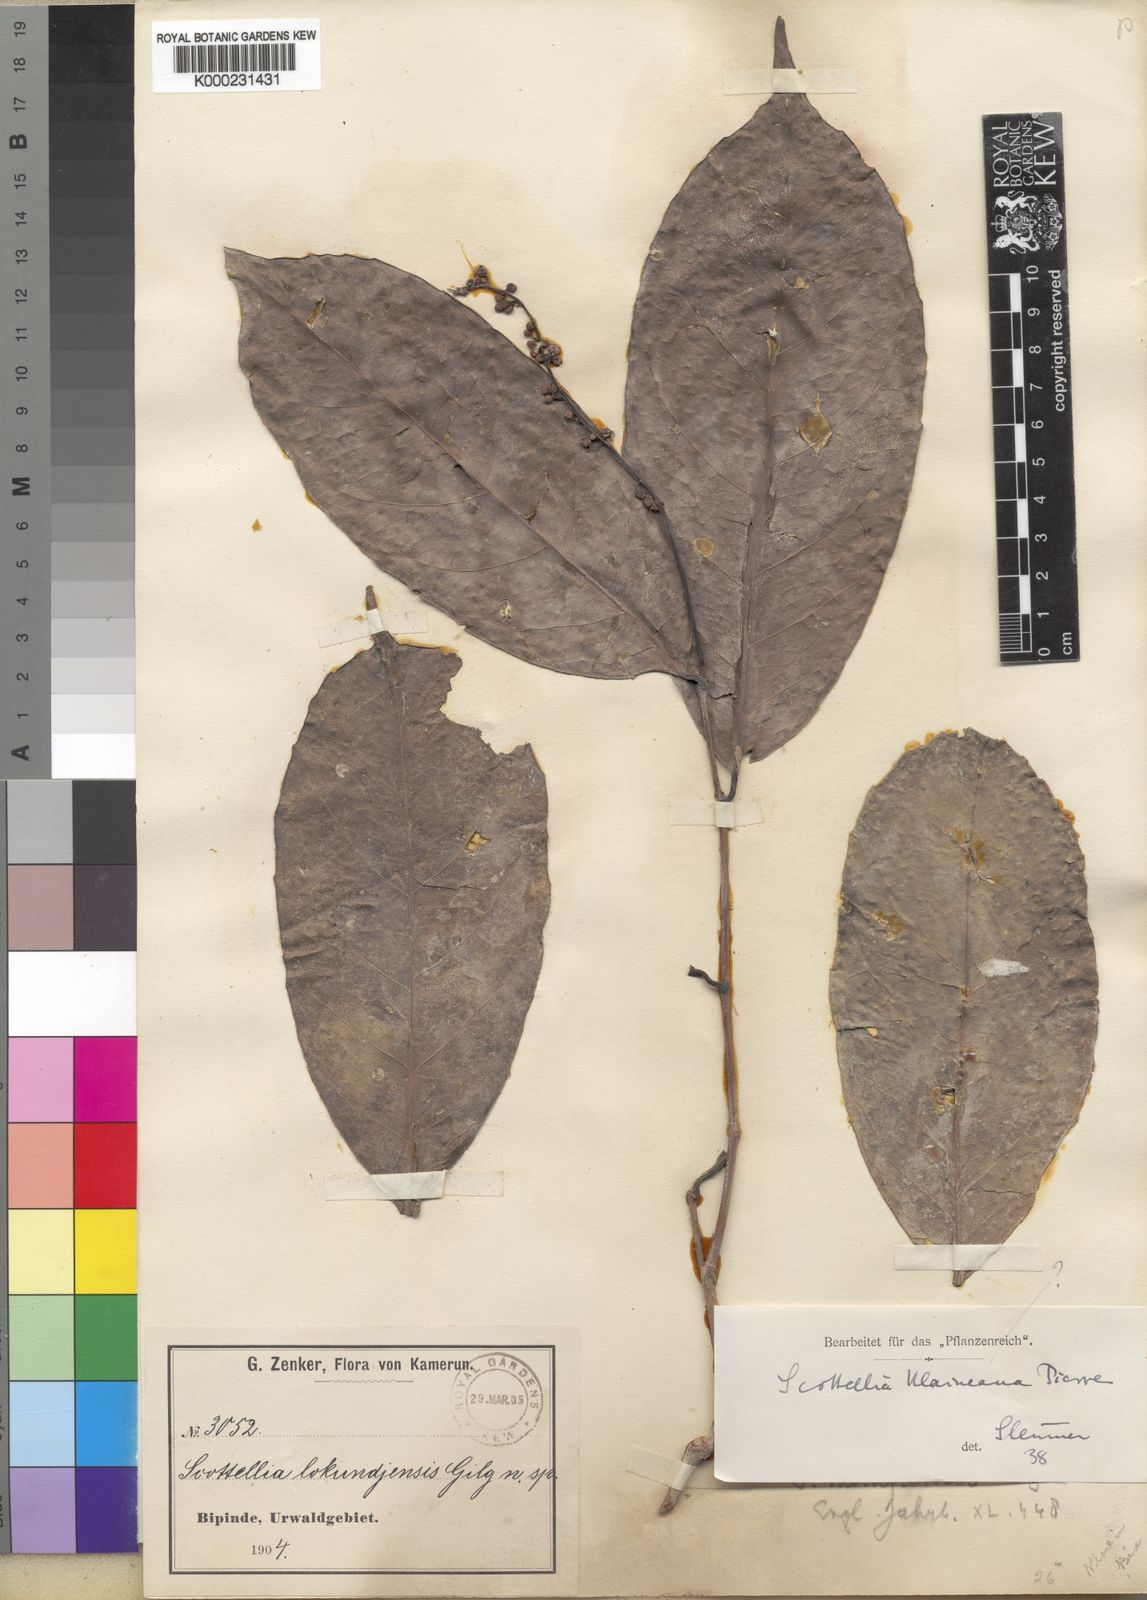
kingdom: Plantae
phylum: Tracheophyta
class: Magnoliopsida
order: Malpighiales
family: Achariaceae
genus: Scottellia
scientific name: Scottellia
